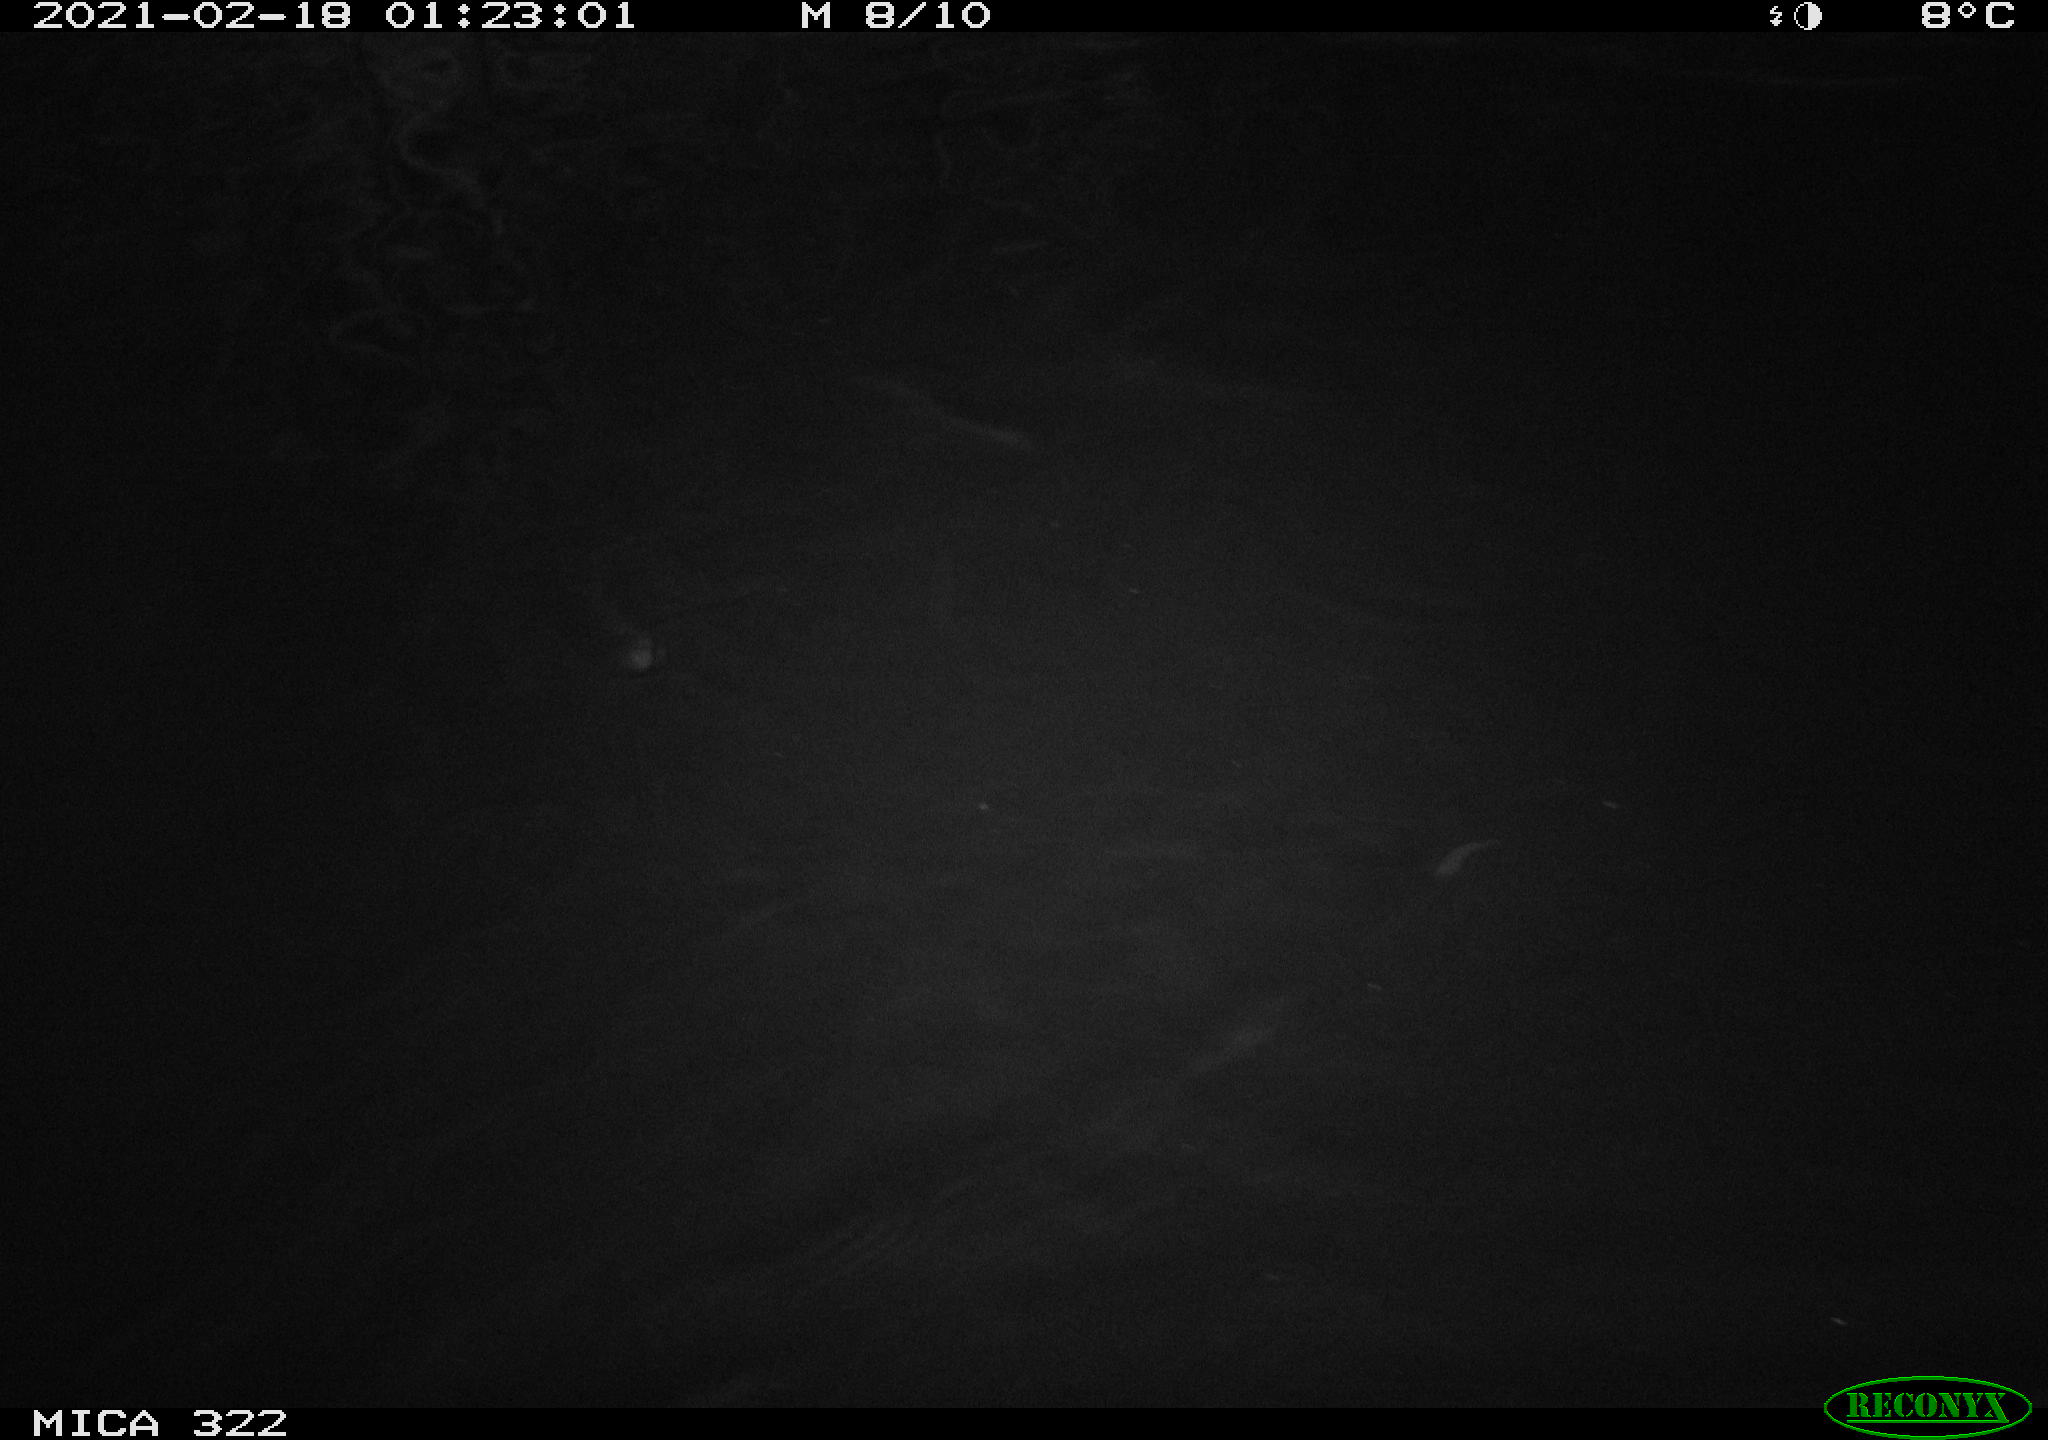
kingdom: Animalia
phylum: Chordata
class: Aves
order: Anseriformes
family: Anatidae
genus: Anas
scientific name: Anas platyrhynchos
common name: Mallard
